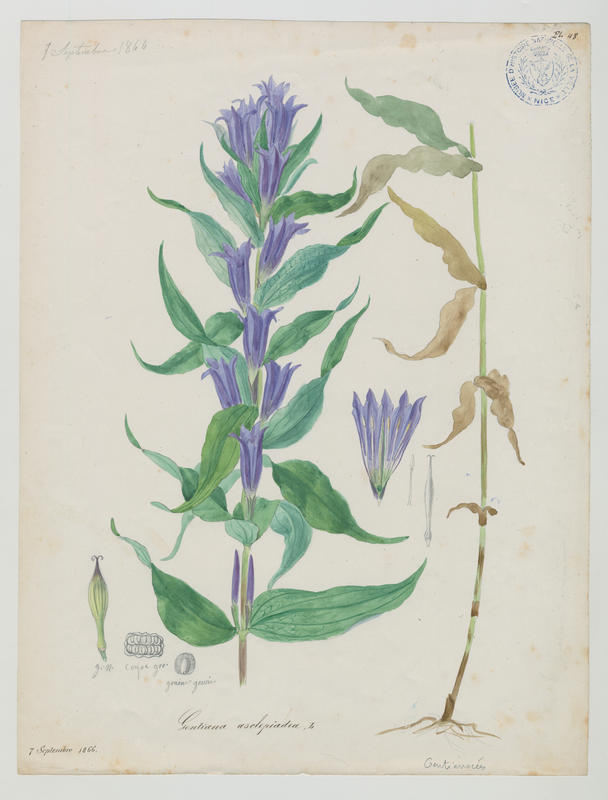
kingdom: Plantae
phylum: Tracheophyta
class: Magnoliopsida
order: Gentianales
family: Gentianaceae
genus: Gentiana
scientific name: Gentiana asclepiadea
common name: Willow gentian
